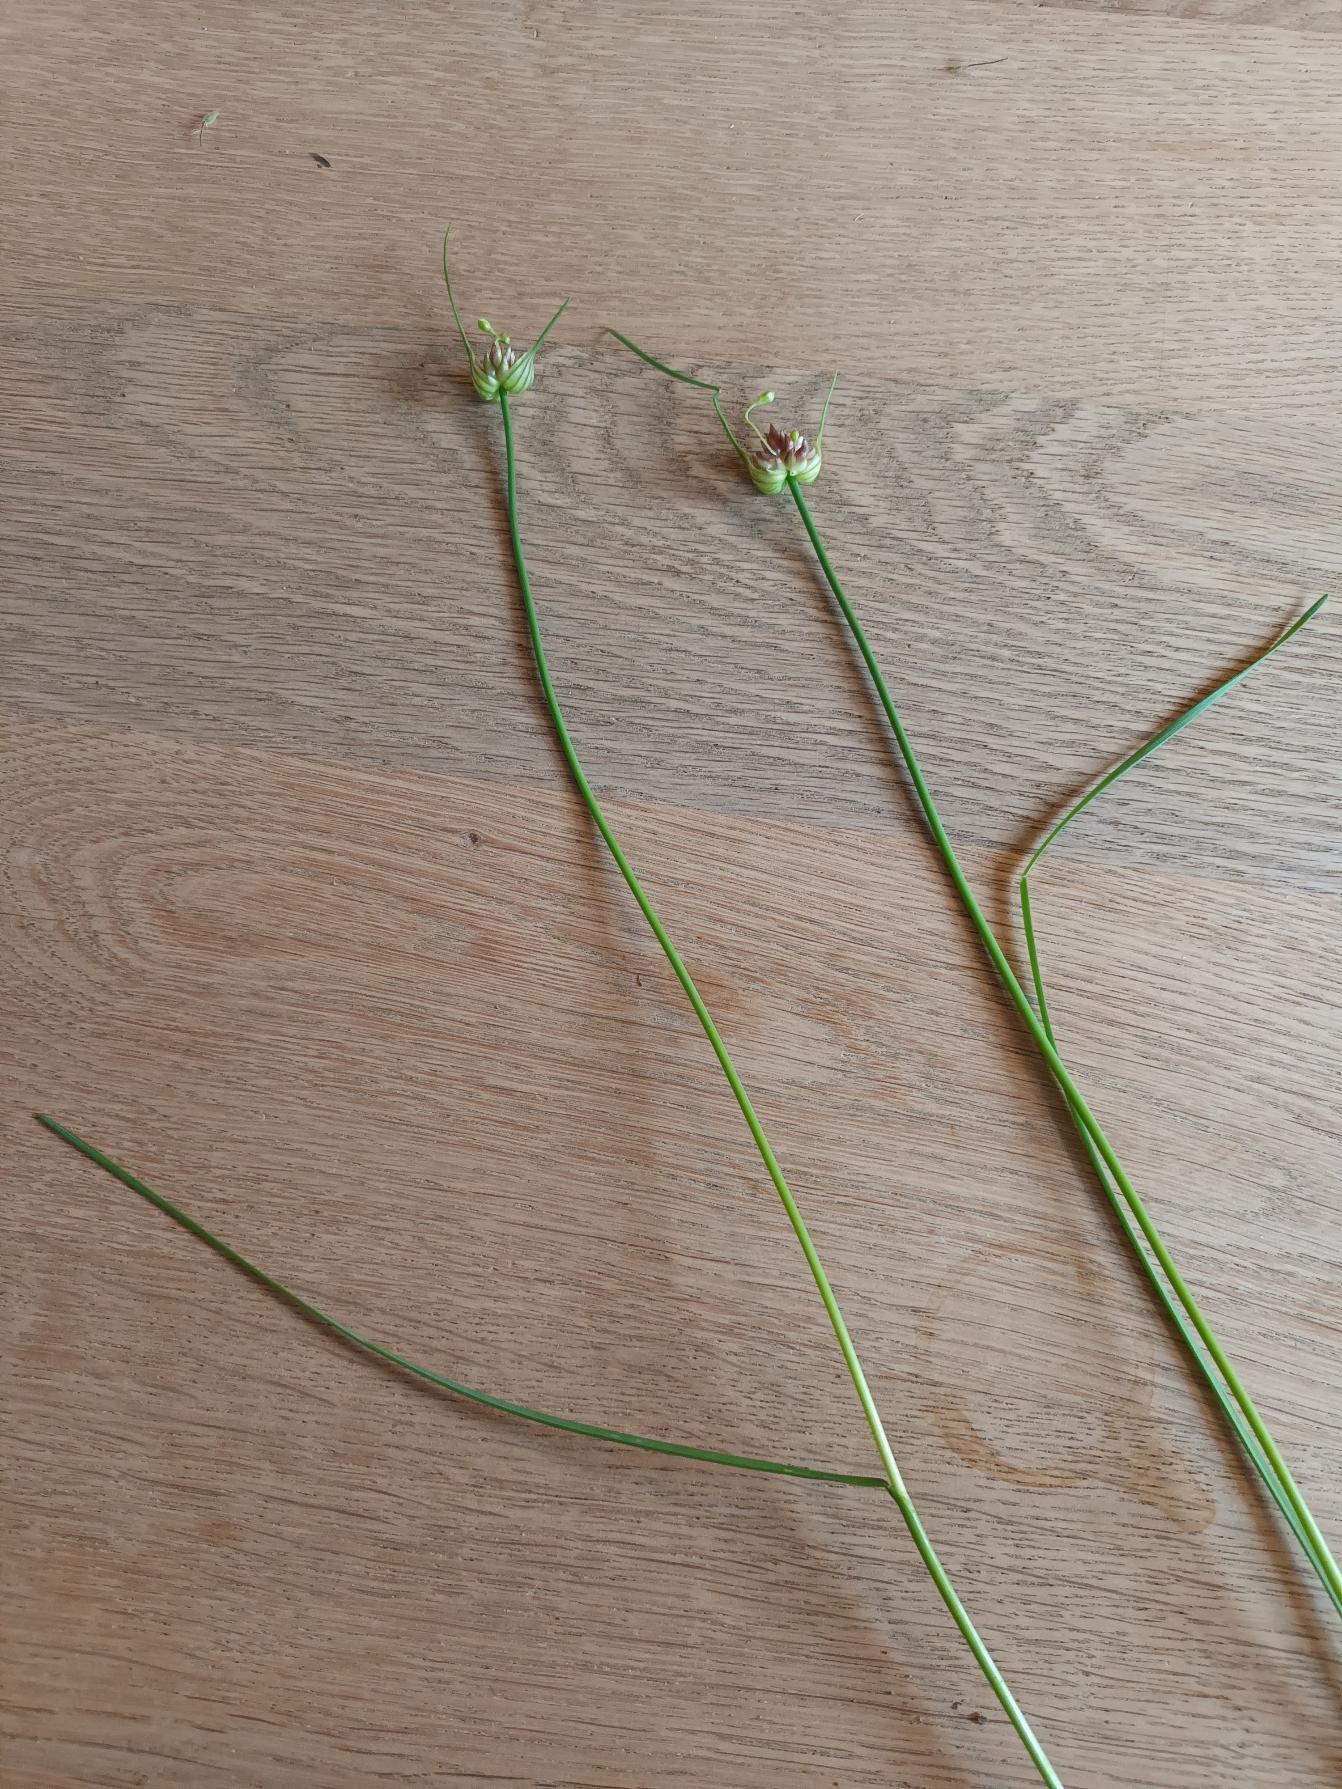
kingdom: Plantae
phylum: Tracheophyta
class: Liliopsida
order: Asparagales
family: Amaryllidaceae
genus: Allium
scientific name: Allium oleraceum
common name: Vild løg
